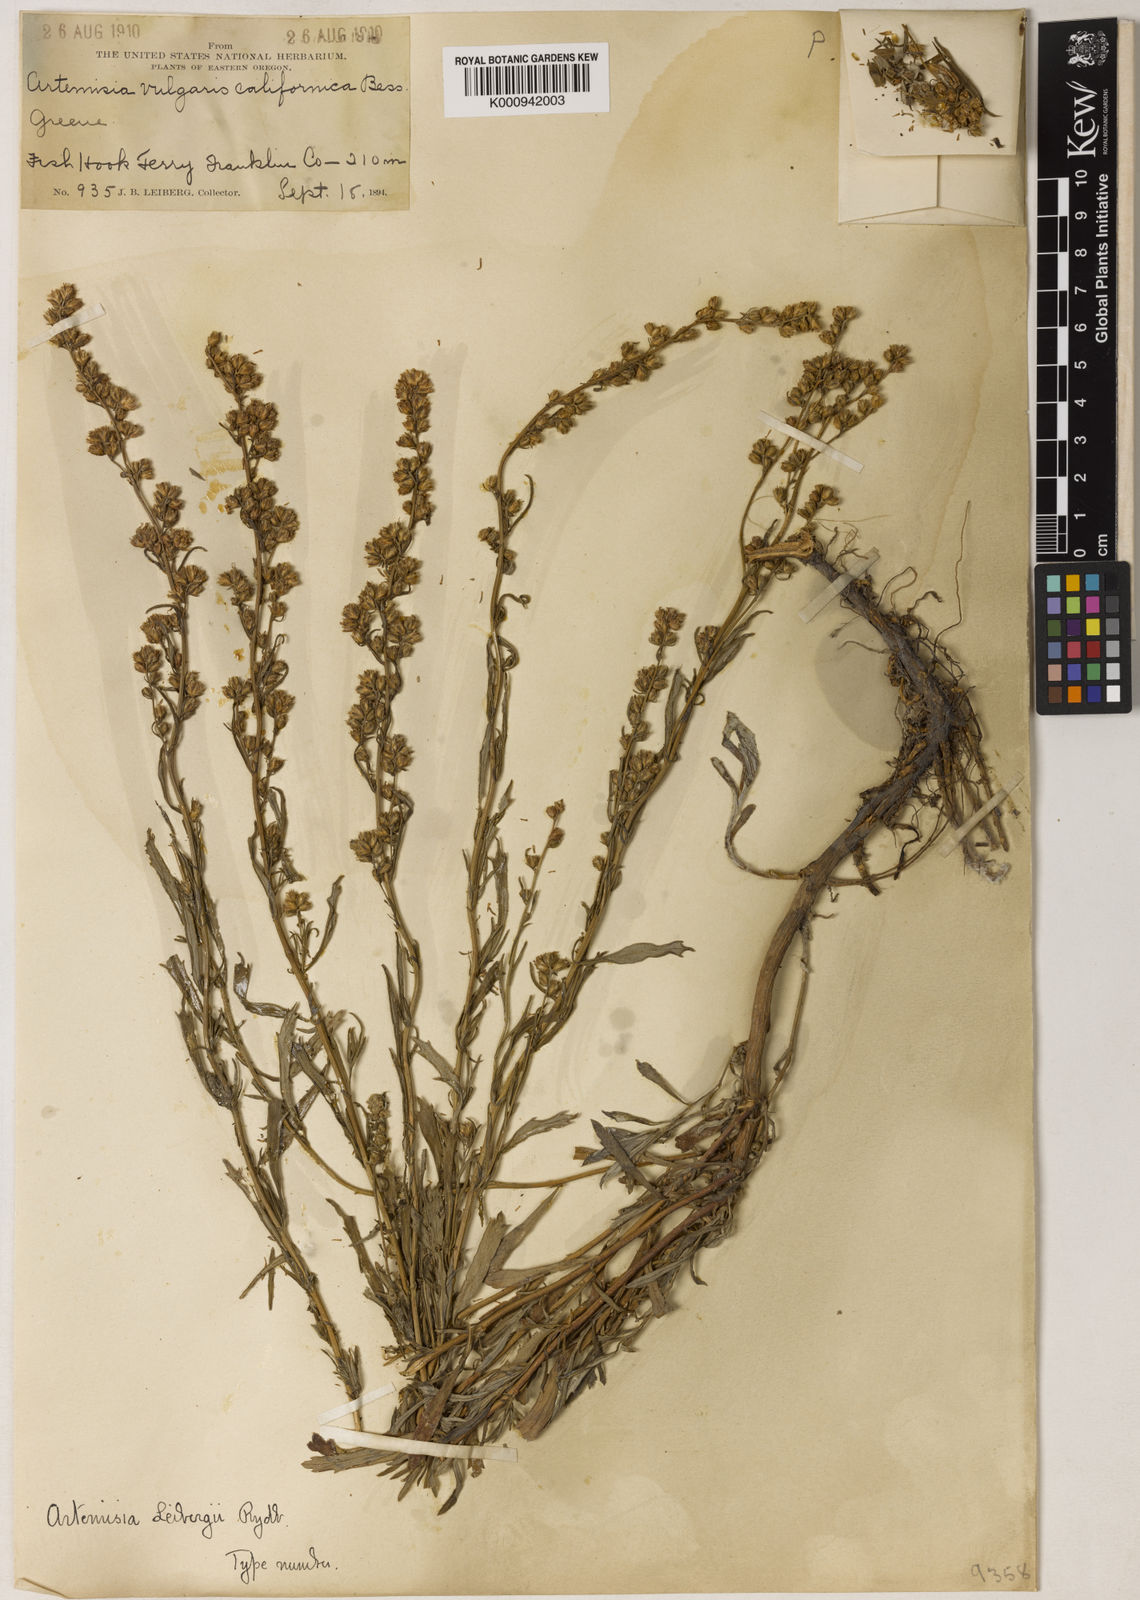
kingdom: Plantae
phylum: Tracheophyta
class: Magnoliopsida
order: Asterales
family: Asteraceae
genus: Artemisia
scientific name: Artemisia floccosa
